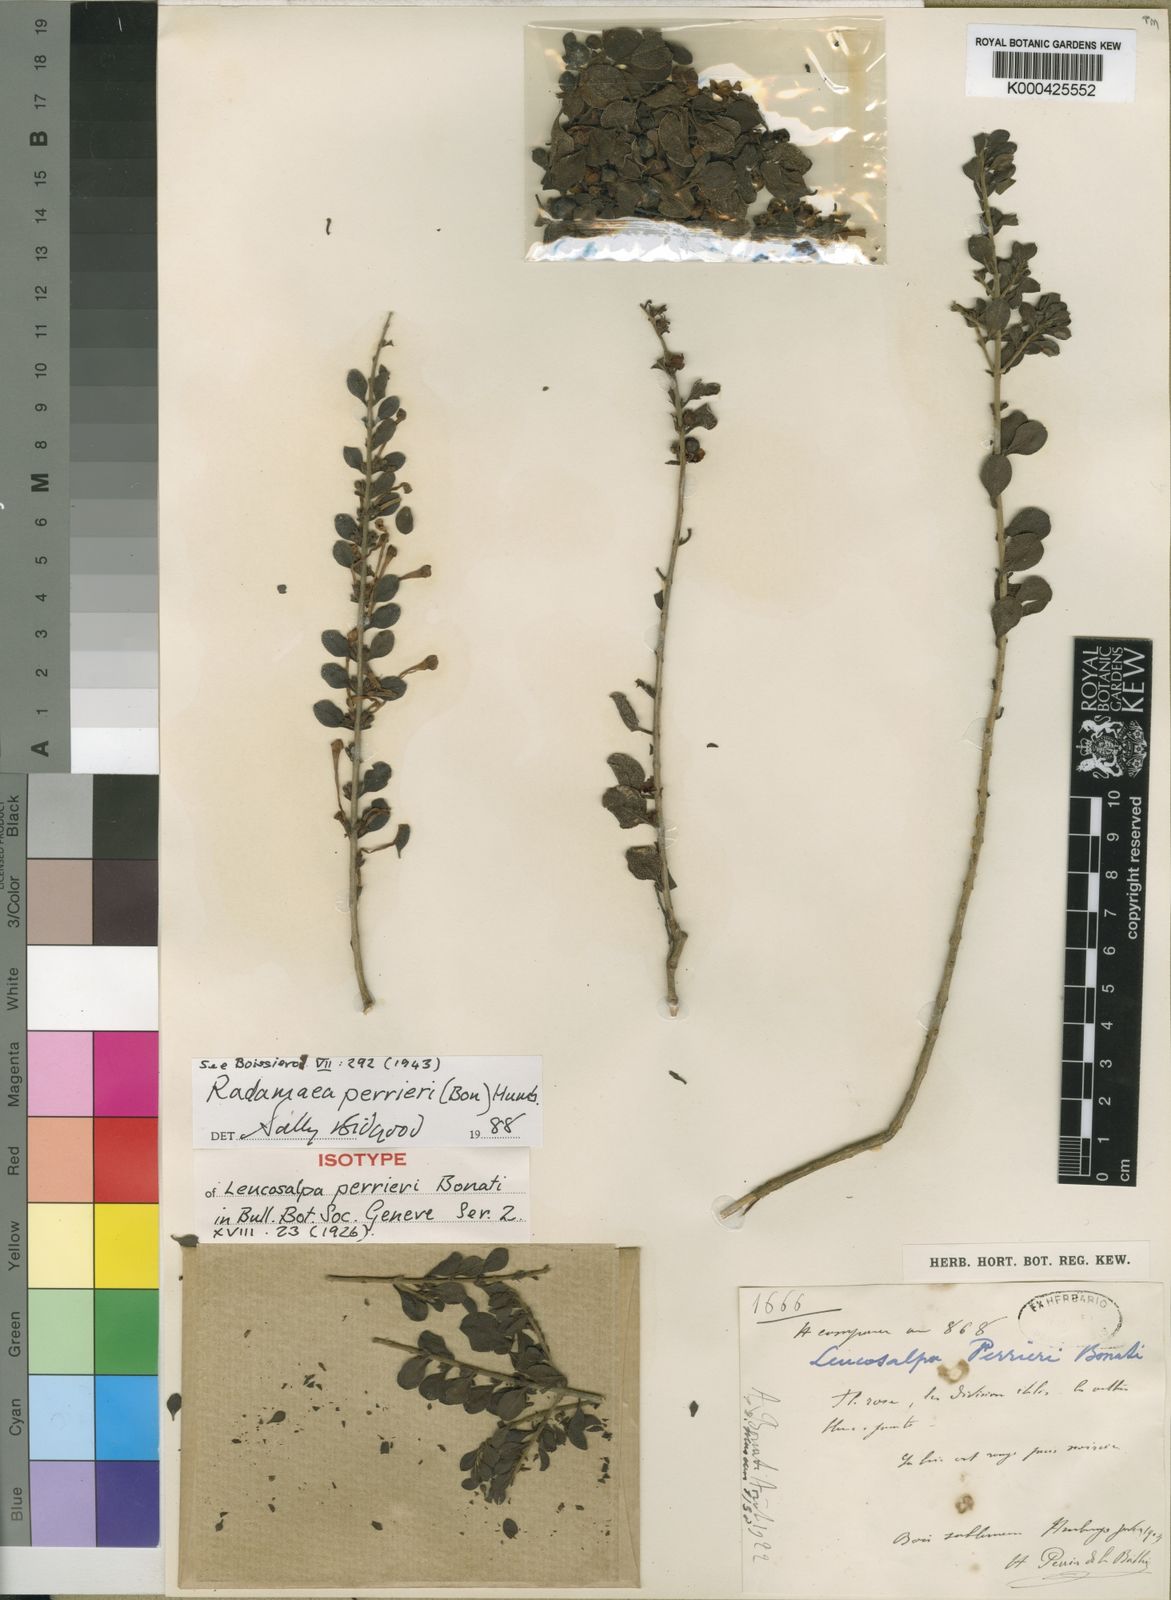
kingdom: Plantae
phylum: Tracheophyta
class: Magnoliopsida
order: Lamiales
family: Orobanchaceae
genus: Radamaea
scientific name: Radamaea perrieri
